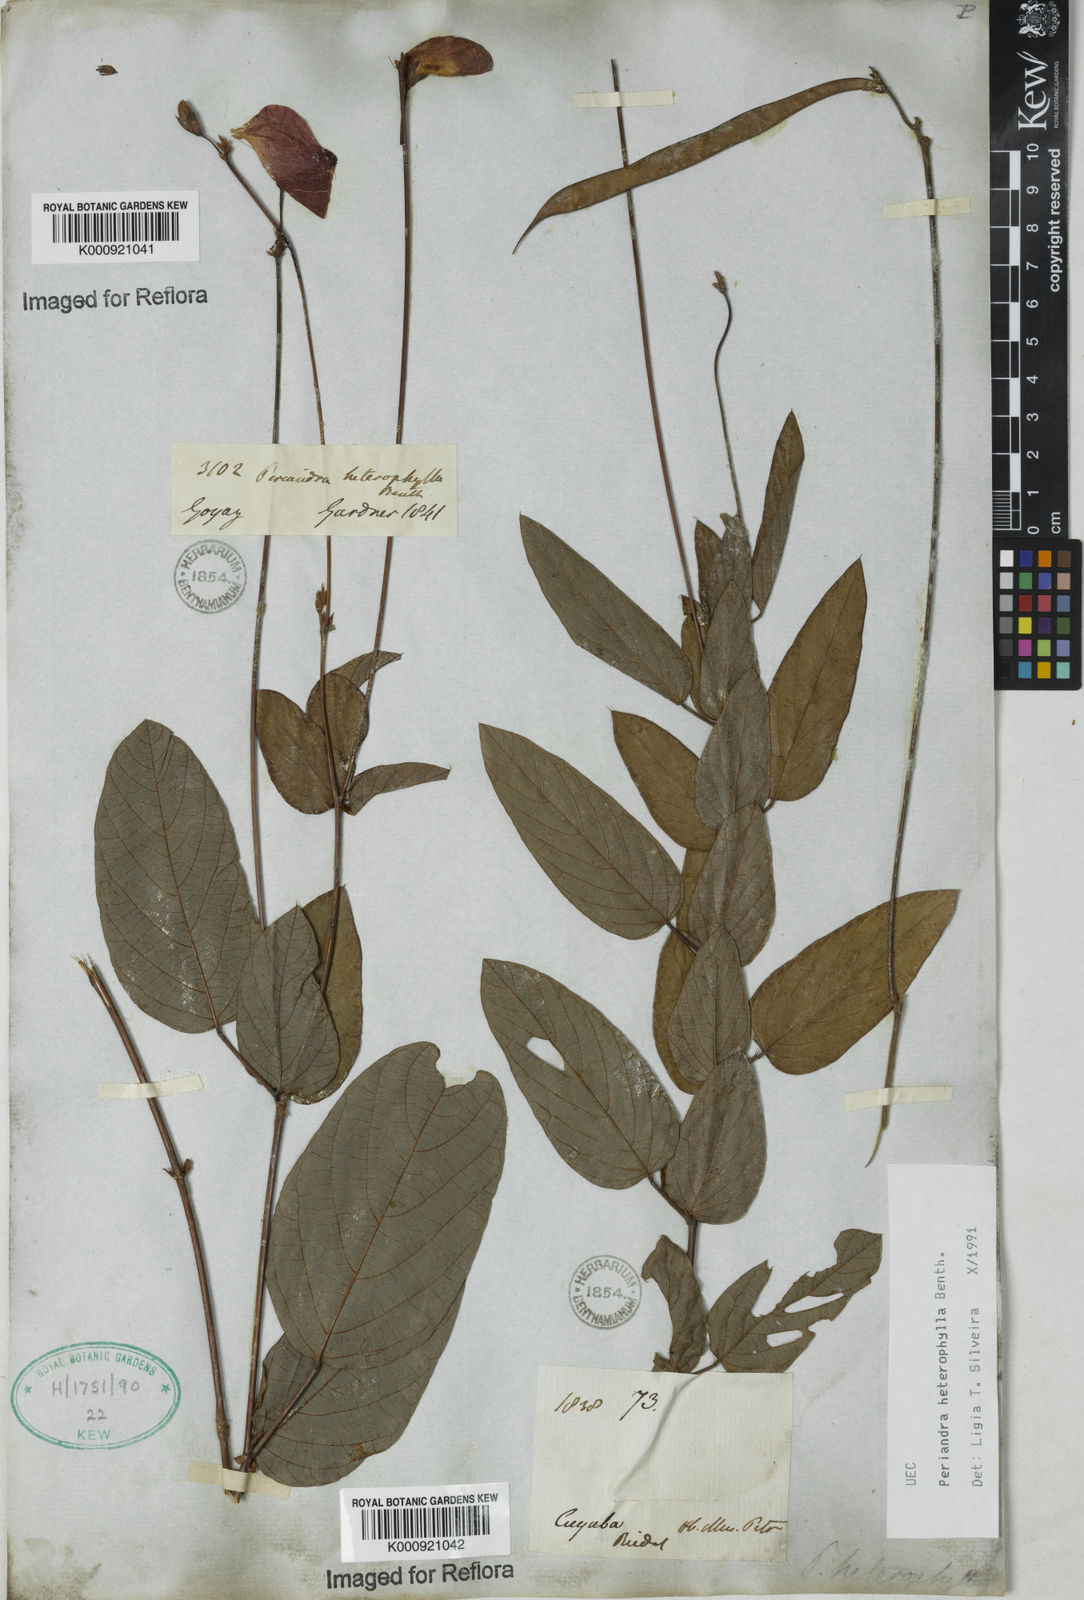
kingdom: Plantae
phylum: Tracheophyta
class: Magnoliopsida
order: Fabales
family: Fabaceae
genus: Periandra
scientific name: Periandra heterophylla
